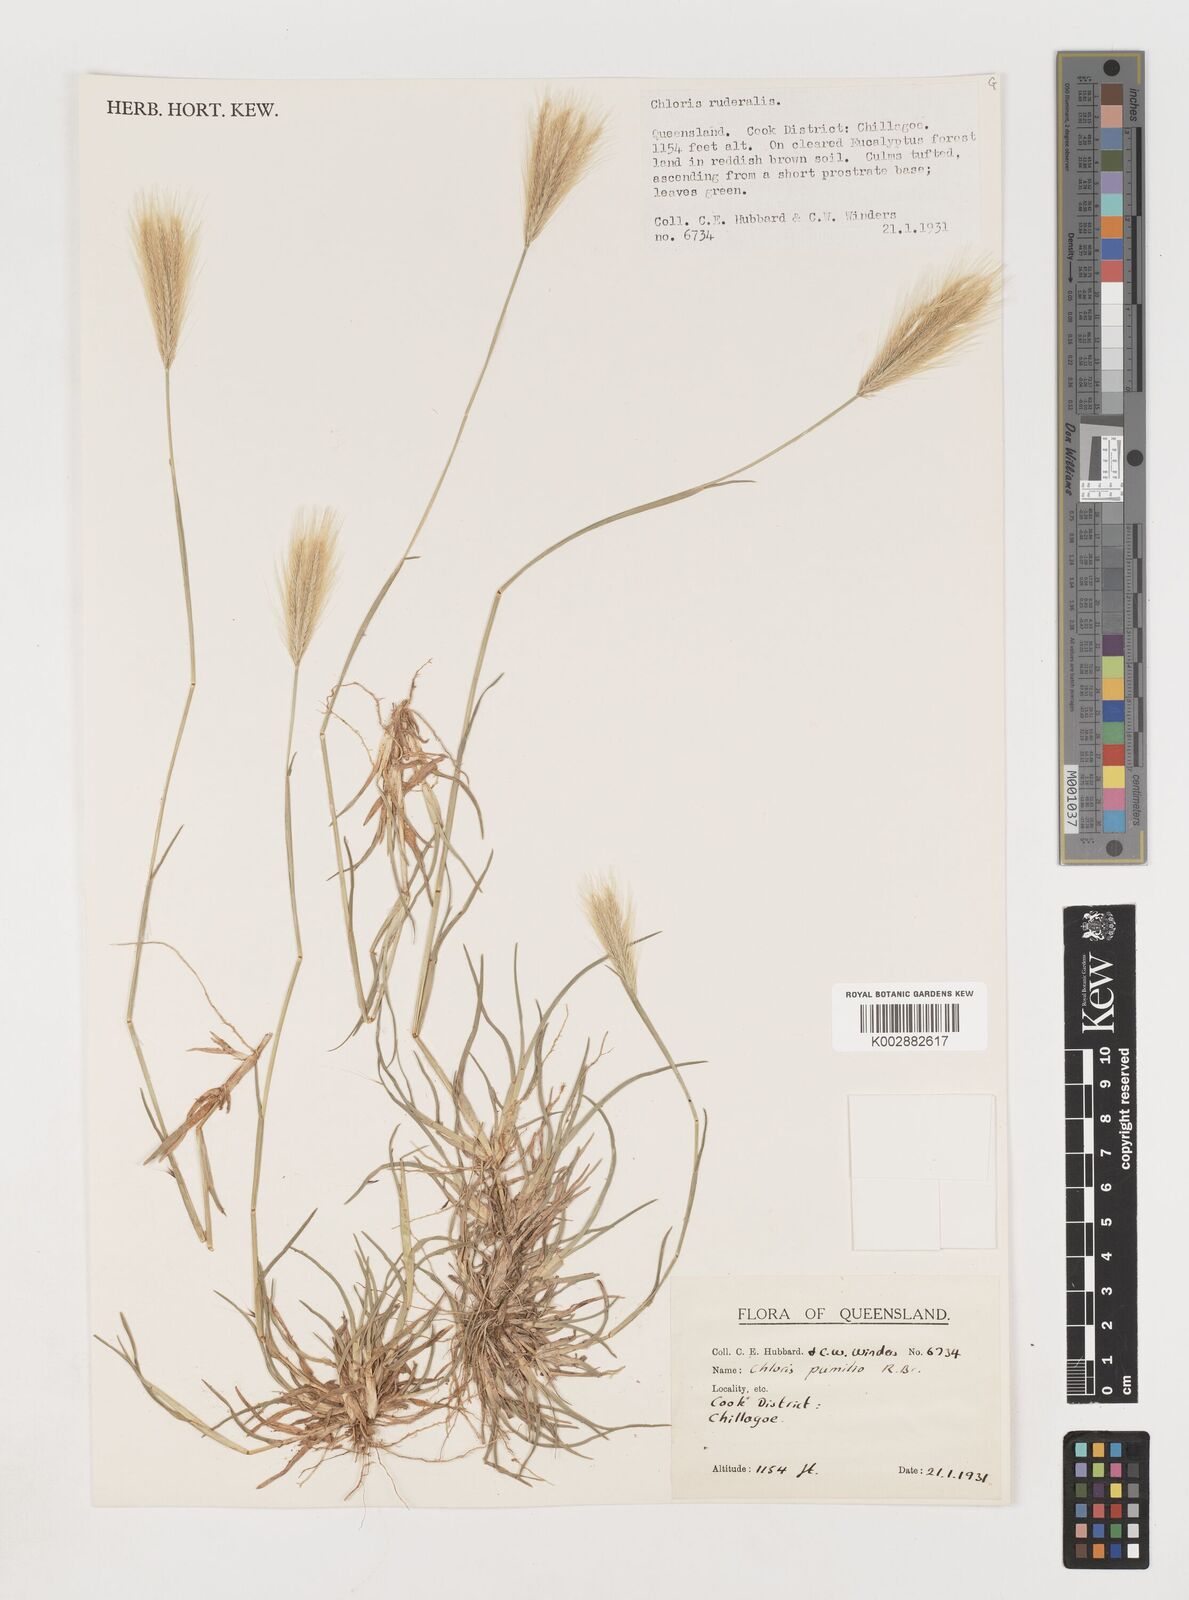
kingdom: Plantae
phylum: Tracheophyta
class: Liliopsida
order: Poales
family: Poaceae
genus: Chloris
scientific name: Chloris pumilio
